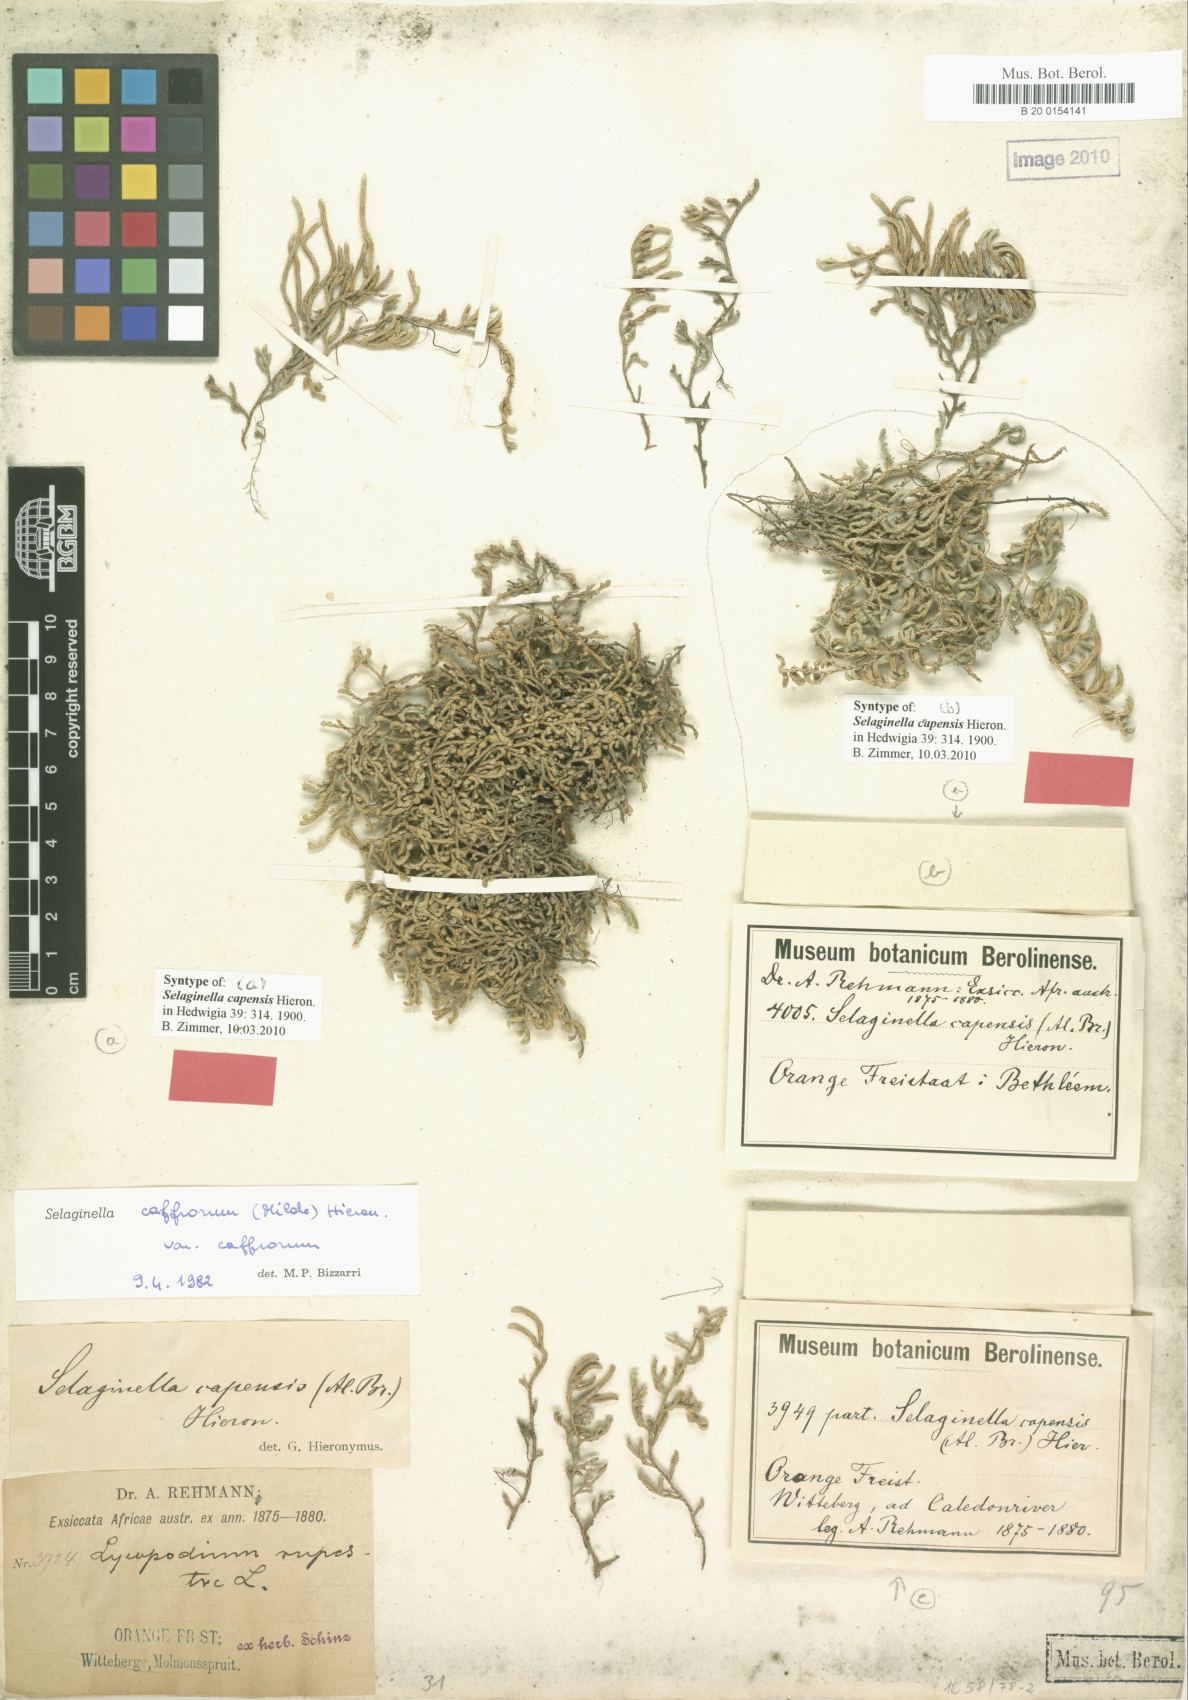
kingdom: Plantae
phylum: Tracheophyta
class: Lycopodiopsida
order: Selaginellales
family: Selaginellaceae
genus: Selaginella
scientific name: Selaginella caffrorum
